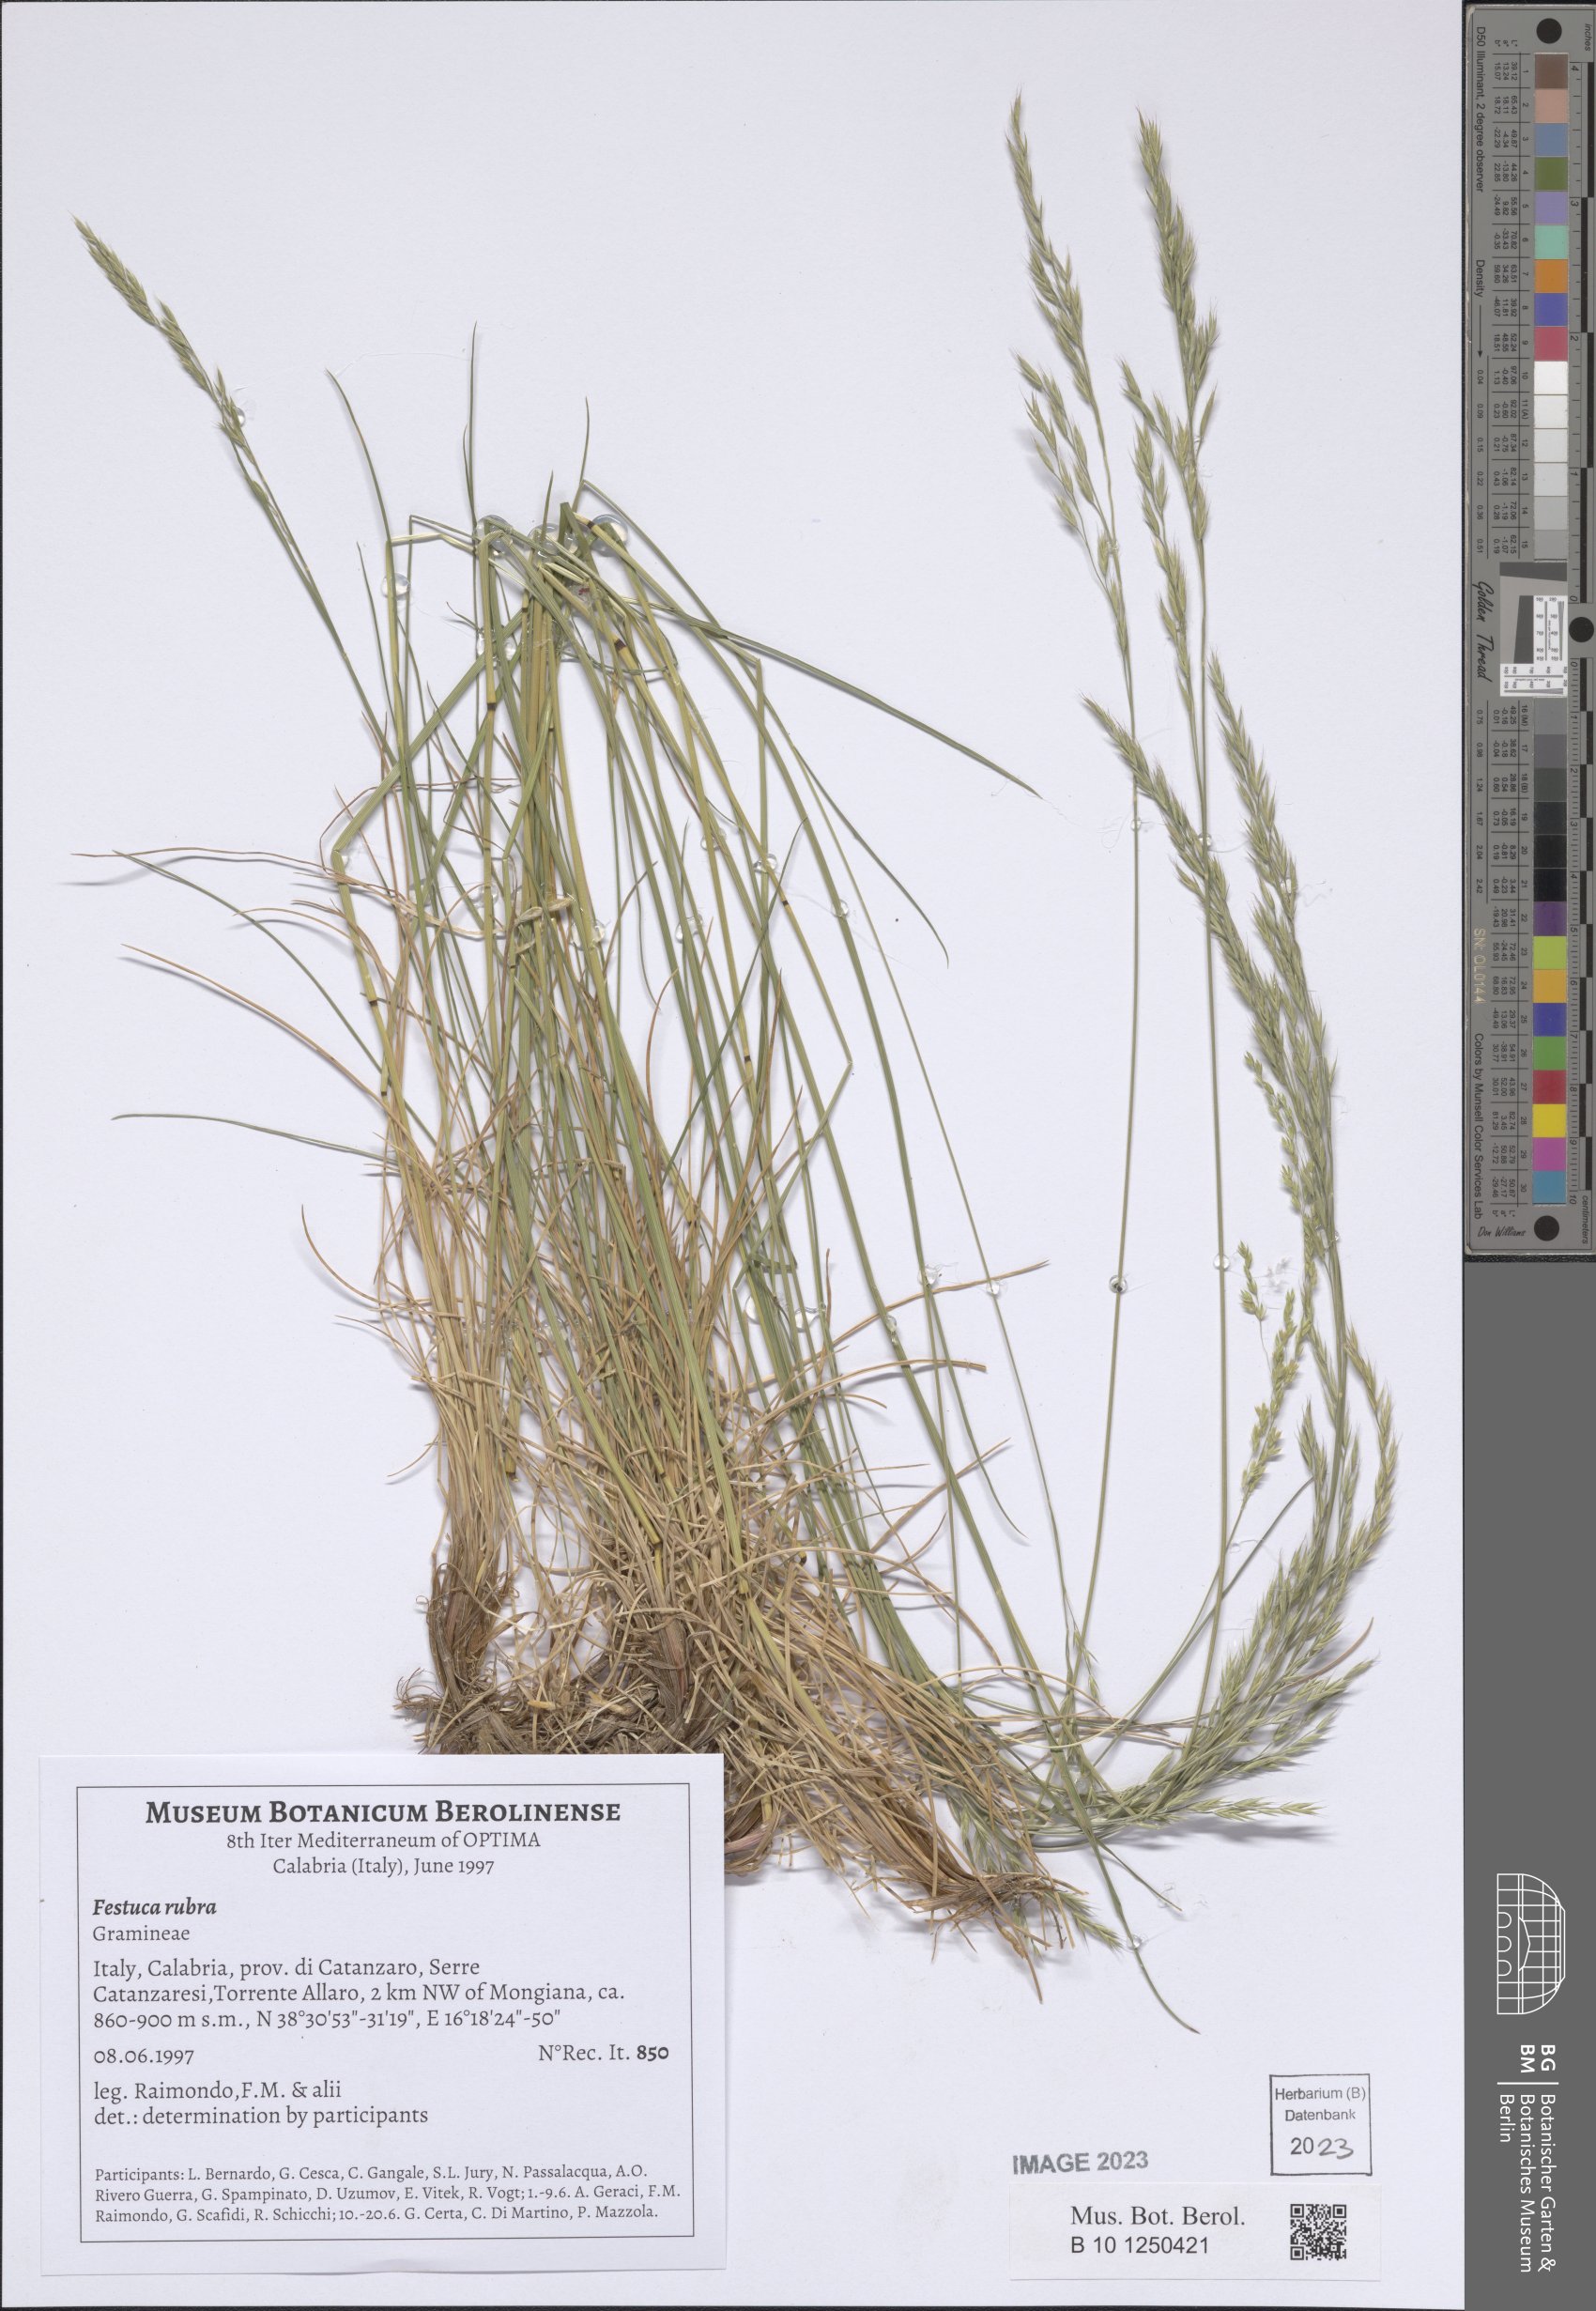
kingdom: Plantae
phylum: Tracheophyta
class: Liliopsida
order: Poales
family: Poaceae
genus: Festuca
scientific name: Festuca rubra
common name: Red fescue
